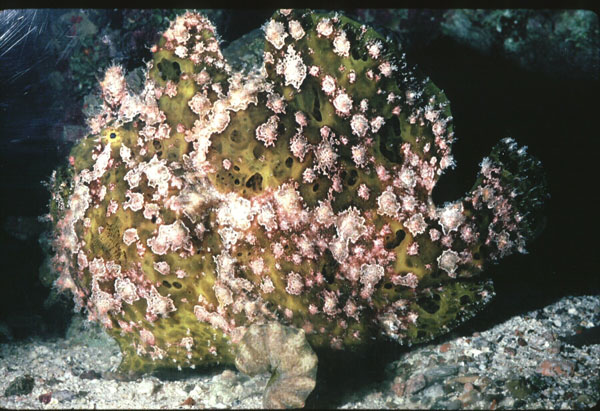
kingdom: Animalia
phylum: Chordata
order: Lophiiformes
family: Antennariidae
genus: Antennarius
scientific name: Antennarius commerson
